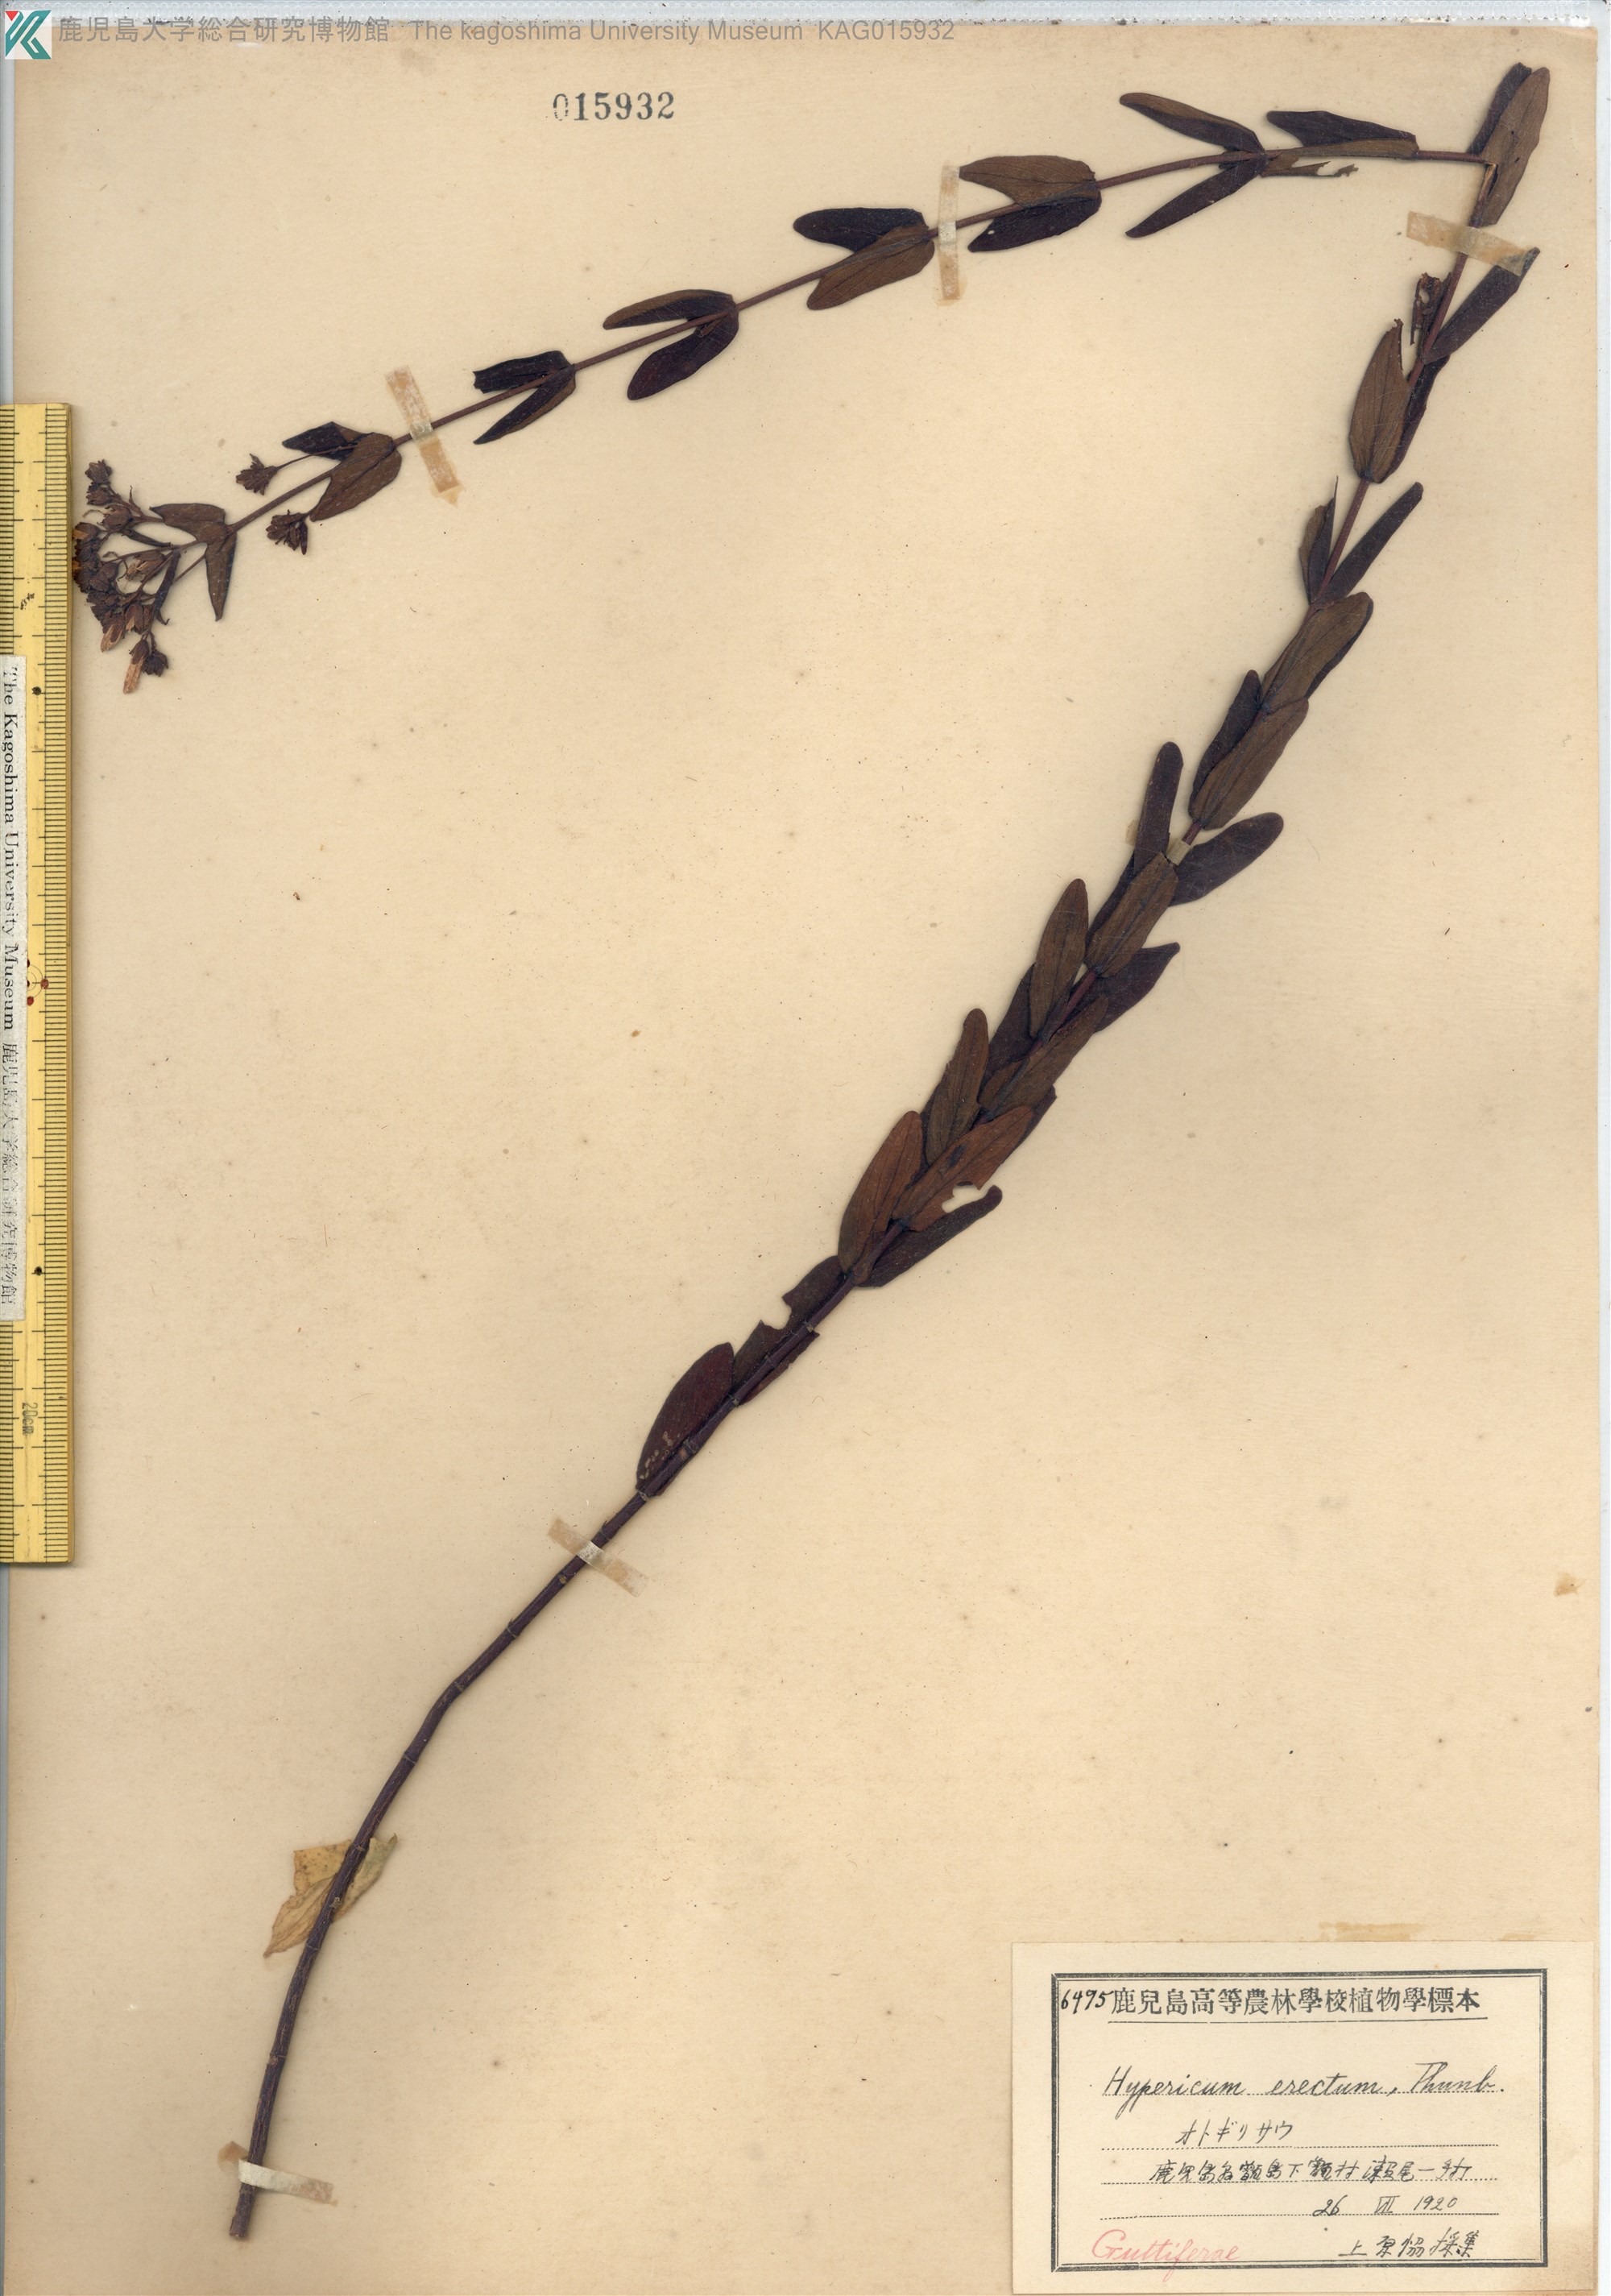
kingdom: Plantae
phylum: Tracheophyta
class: Magnoliopsida
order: Malpighiales
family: Hypericaceae
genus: Hypericum
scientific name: Hypericum erectum
